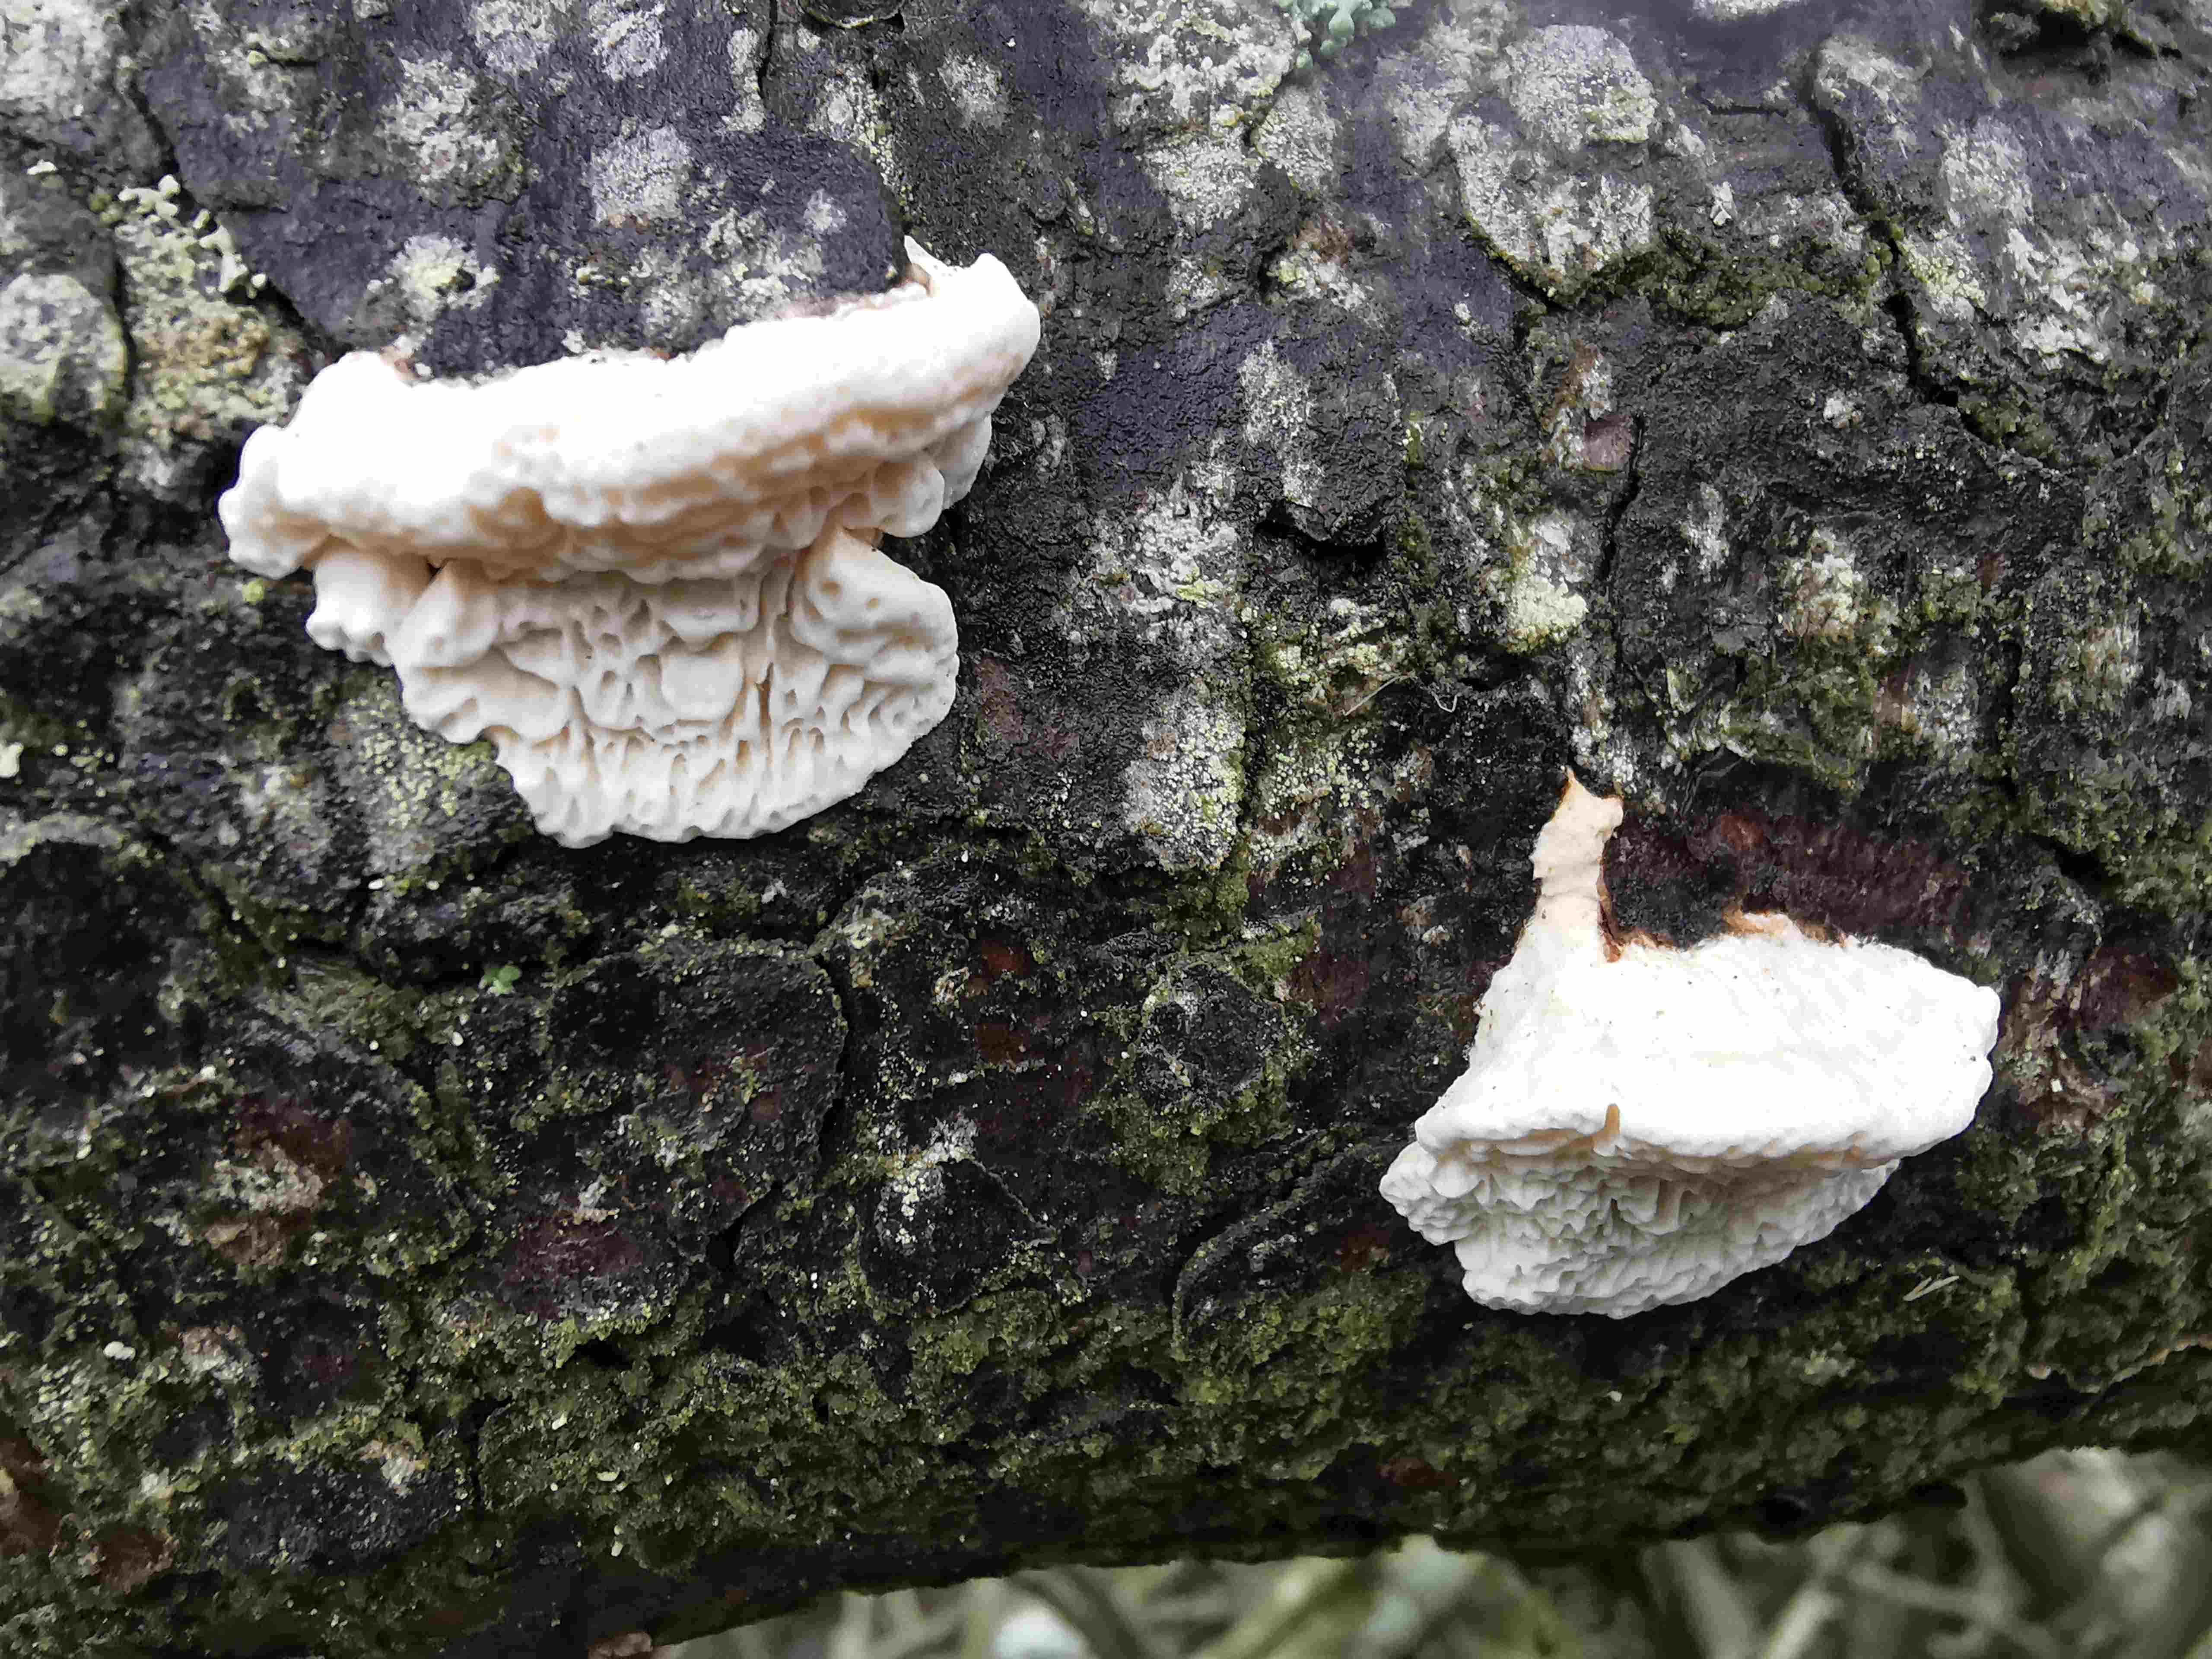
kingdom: Fungi
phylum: Basidiomycota
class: Agaricomycetes
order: Polyporales
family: Fomitopsidaceae
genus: Fomitopsis
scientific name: Fomitopsis
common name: fyrre-skiveporesvamp
